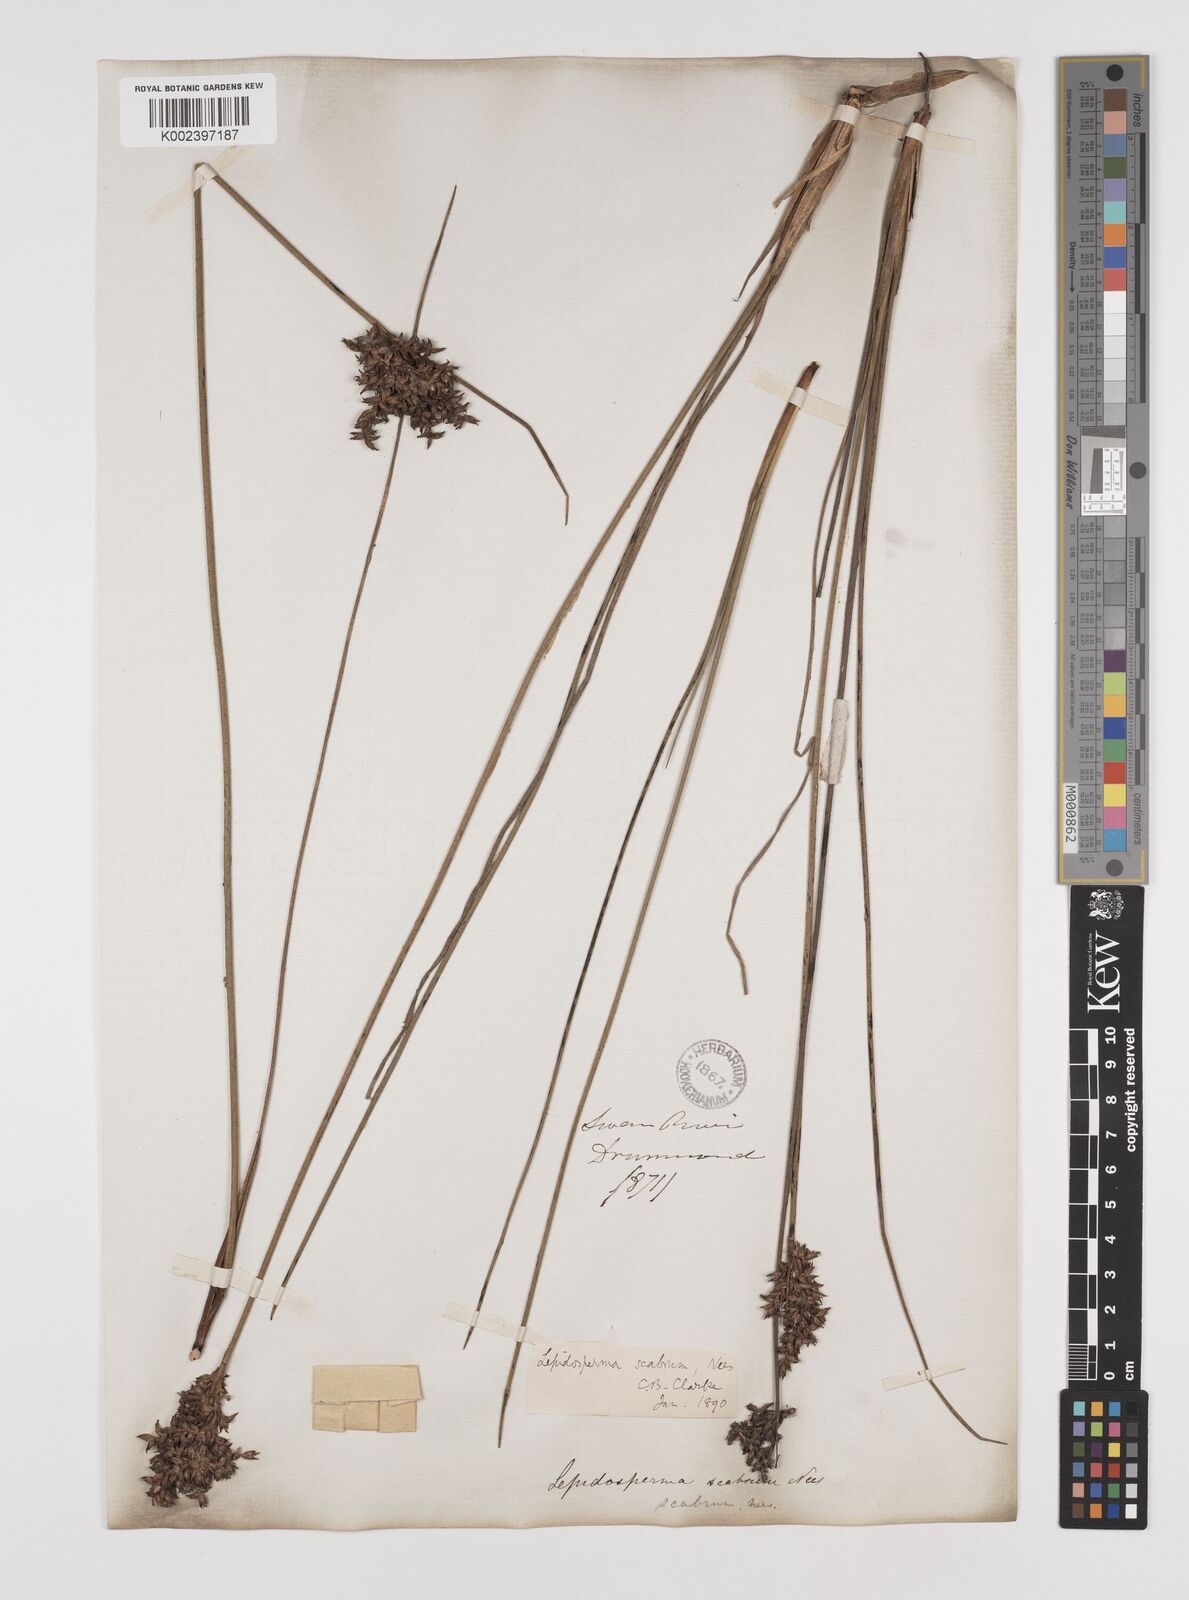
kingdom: Plantae
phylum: Tracheophyta
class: Liliopsida
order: Poales
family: Cyperaceae
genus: Lepidosperma
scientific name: Lepidosperma scabrum
